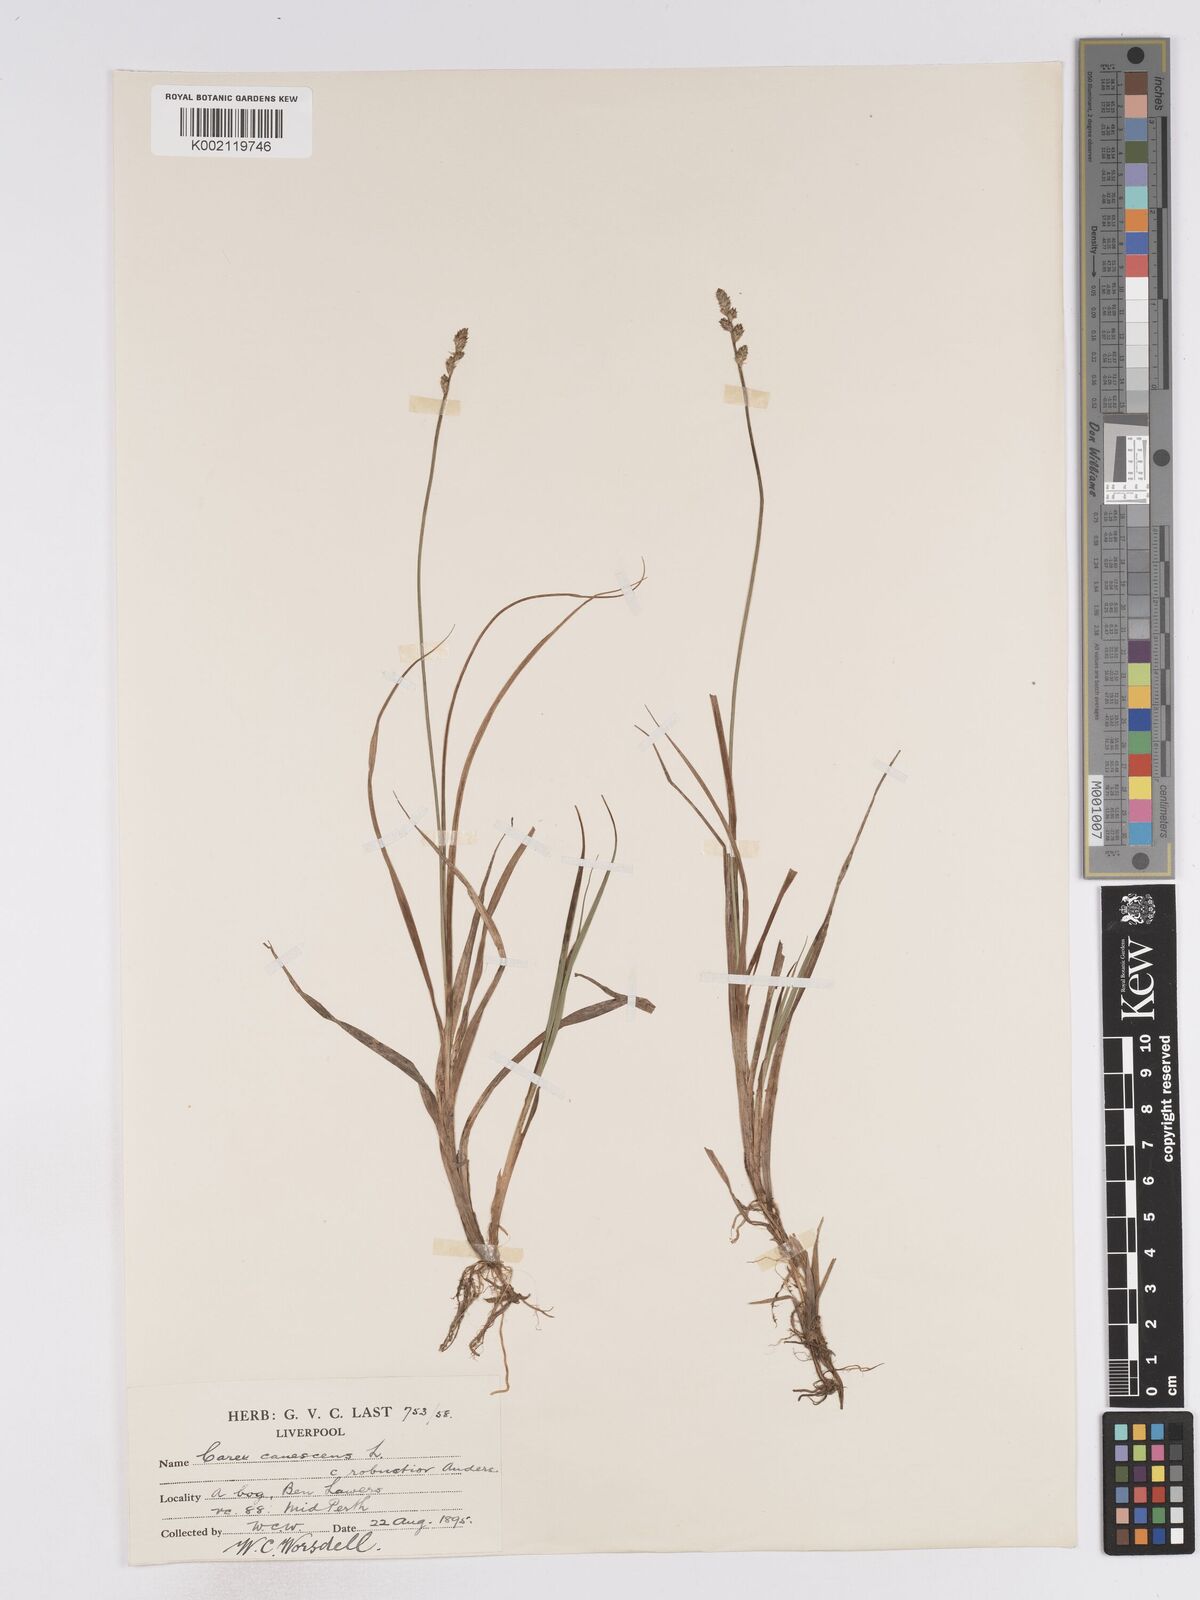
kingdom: Plantae
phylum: Tracheophyta
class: Liliopsida
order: Poales
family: Cyperaceae
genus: Carex
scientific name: Carex curta
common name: White sedge
